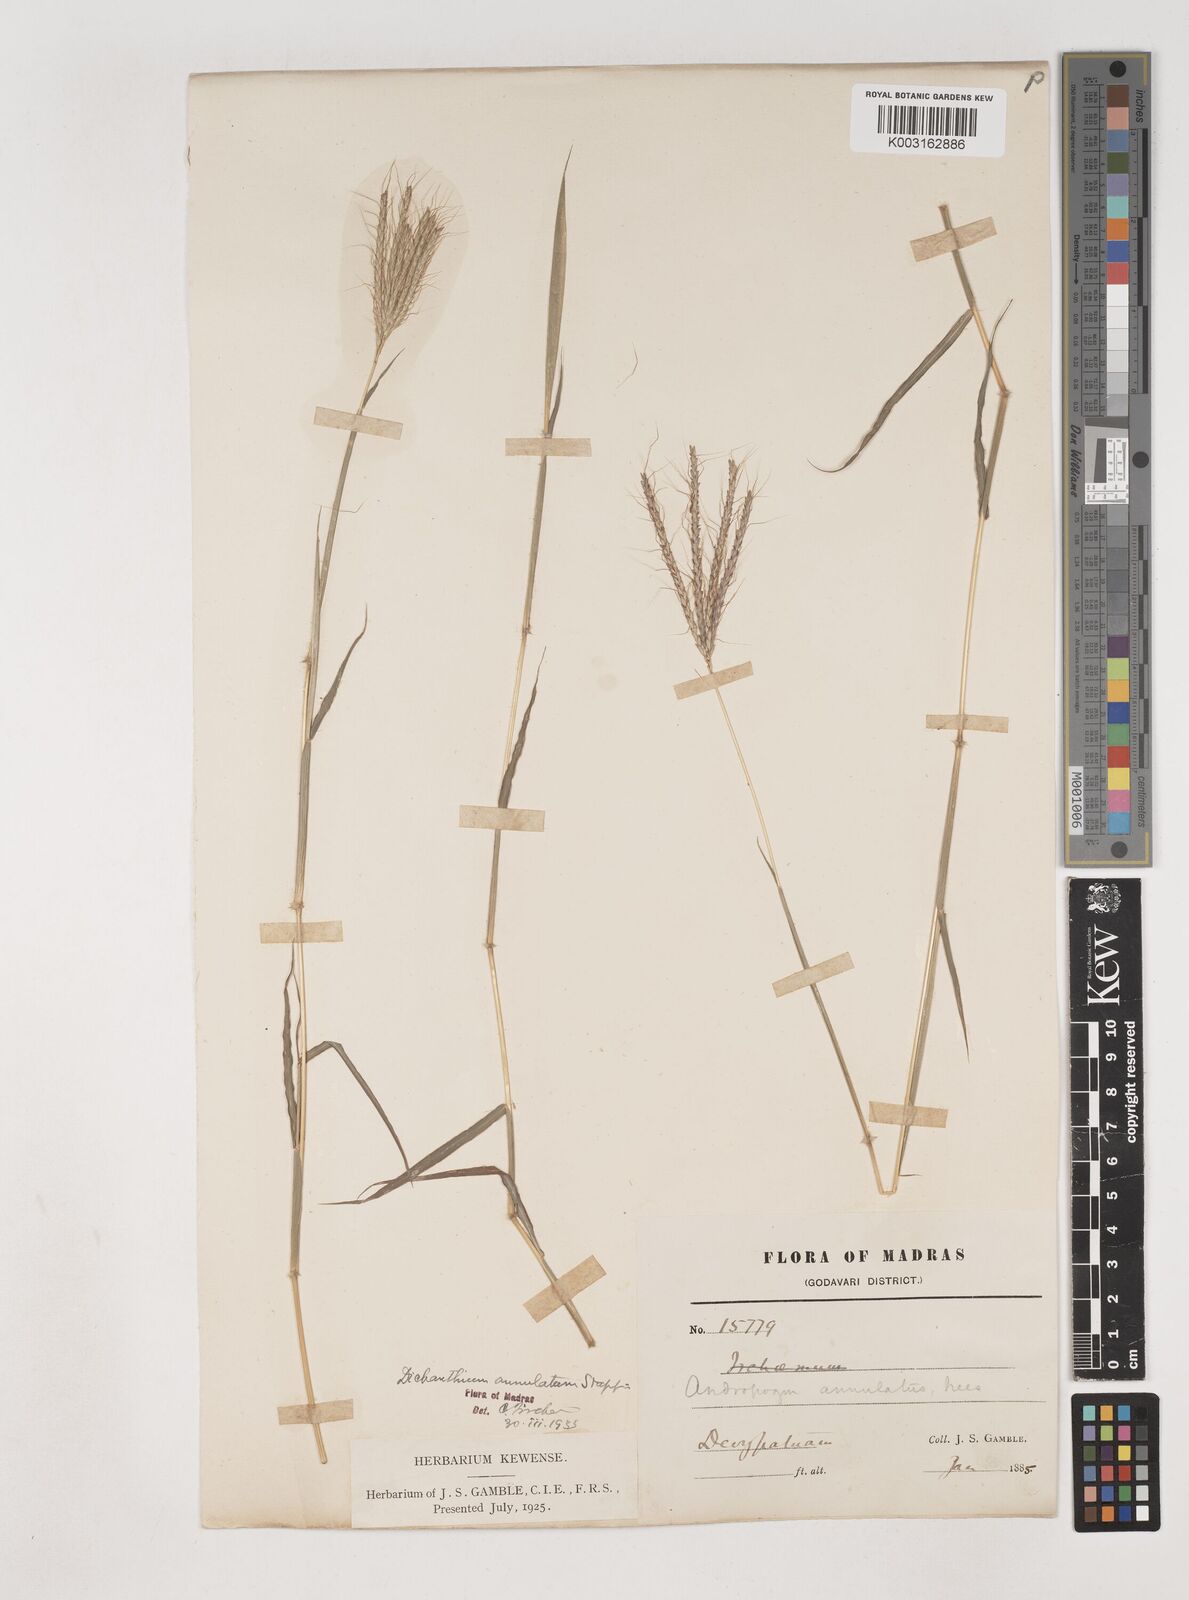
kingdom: Plantae
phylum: Tracheophyta
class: Liliopsida
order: Poales
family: Poaceae
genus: Dichanthium
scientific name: Dichanthium annulatum
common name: Kleberg's bluestem
